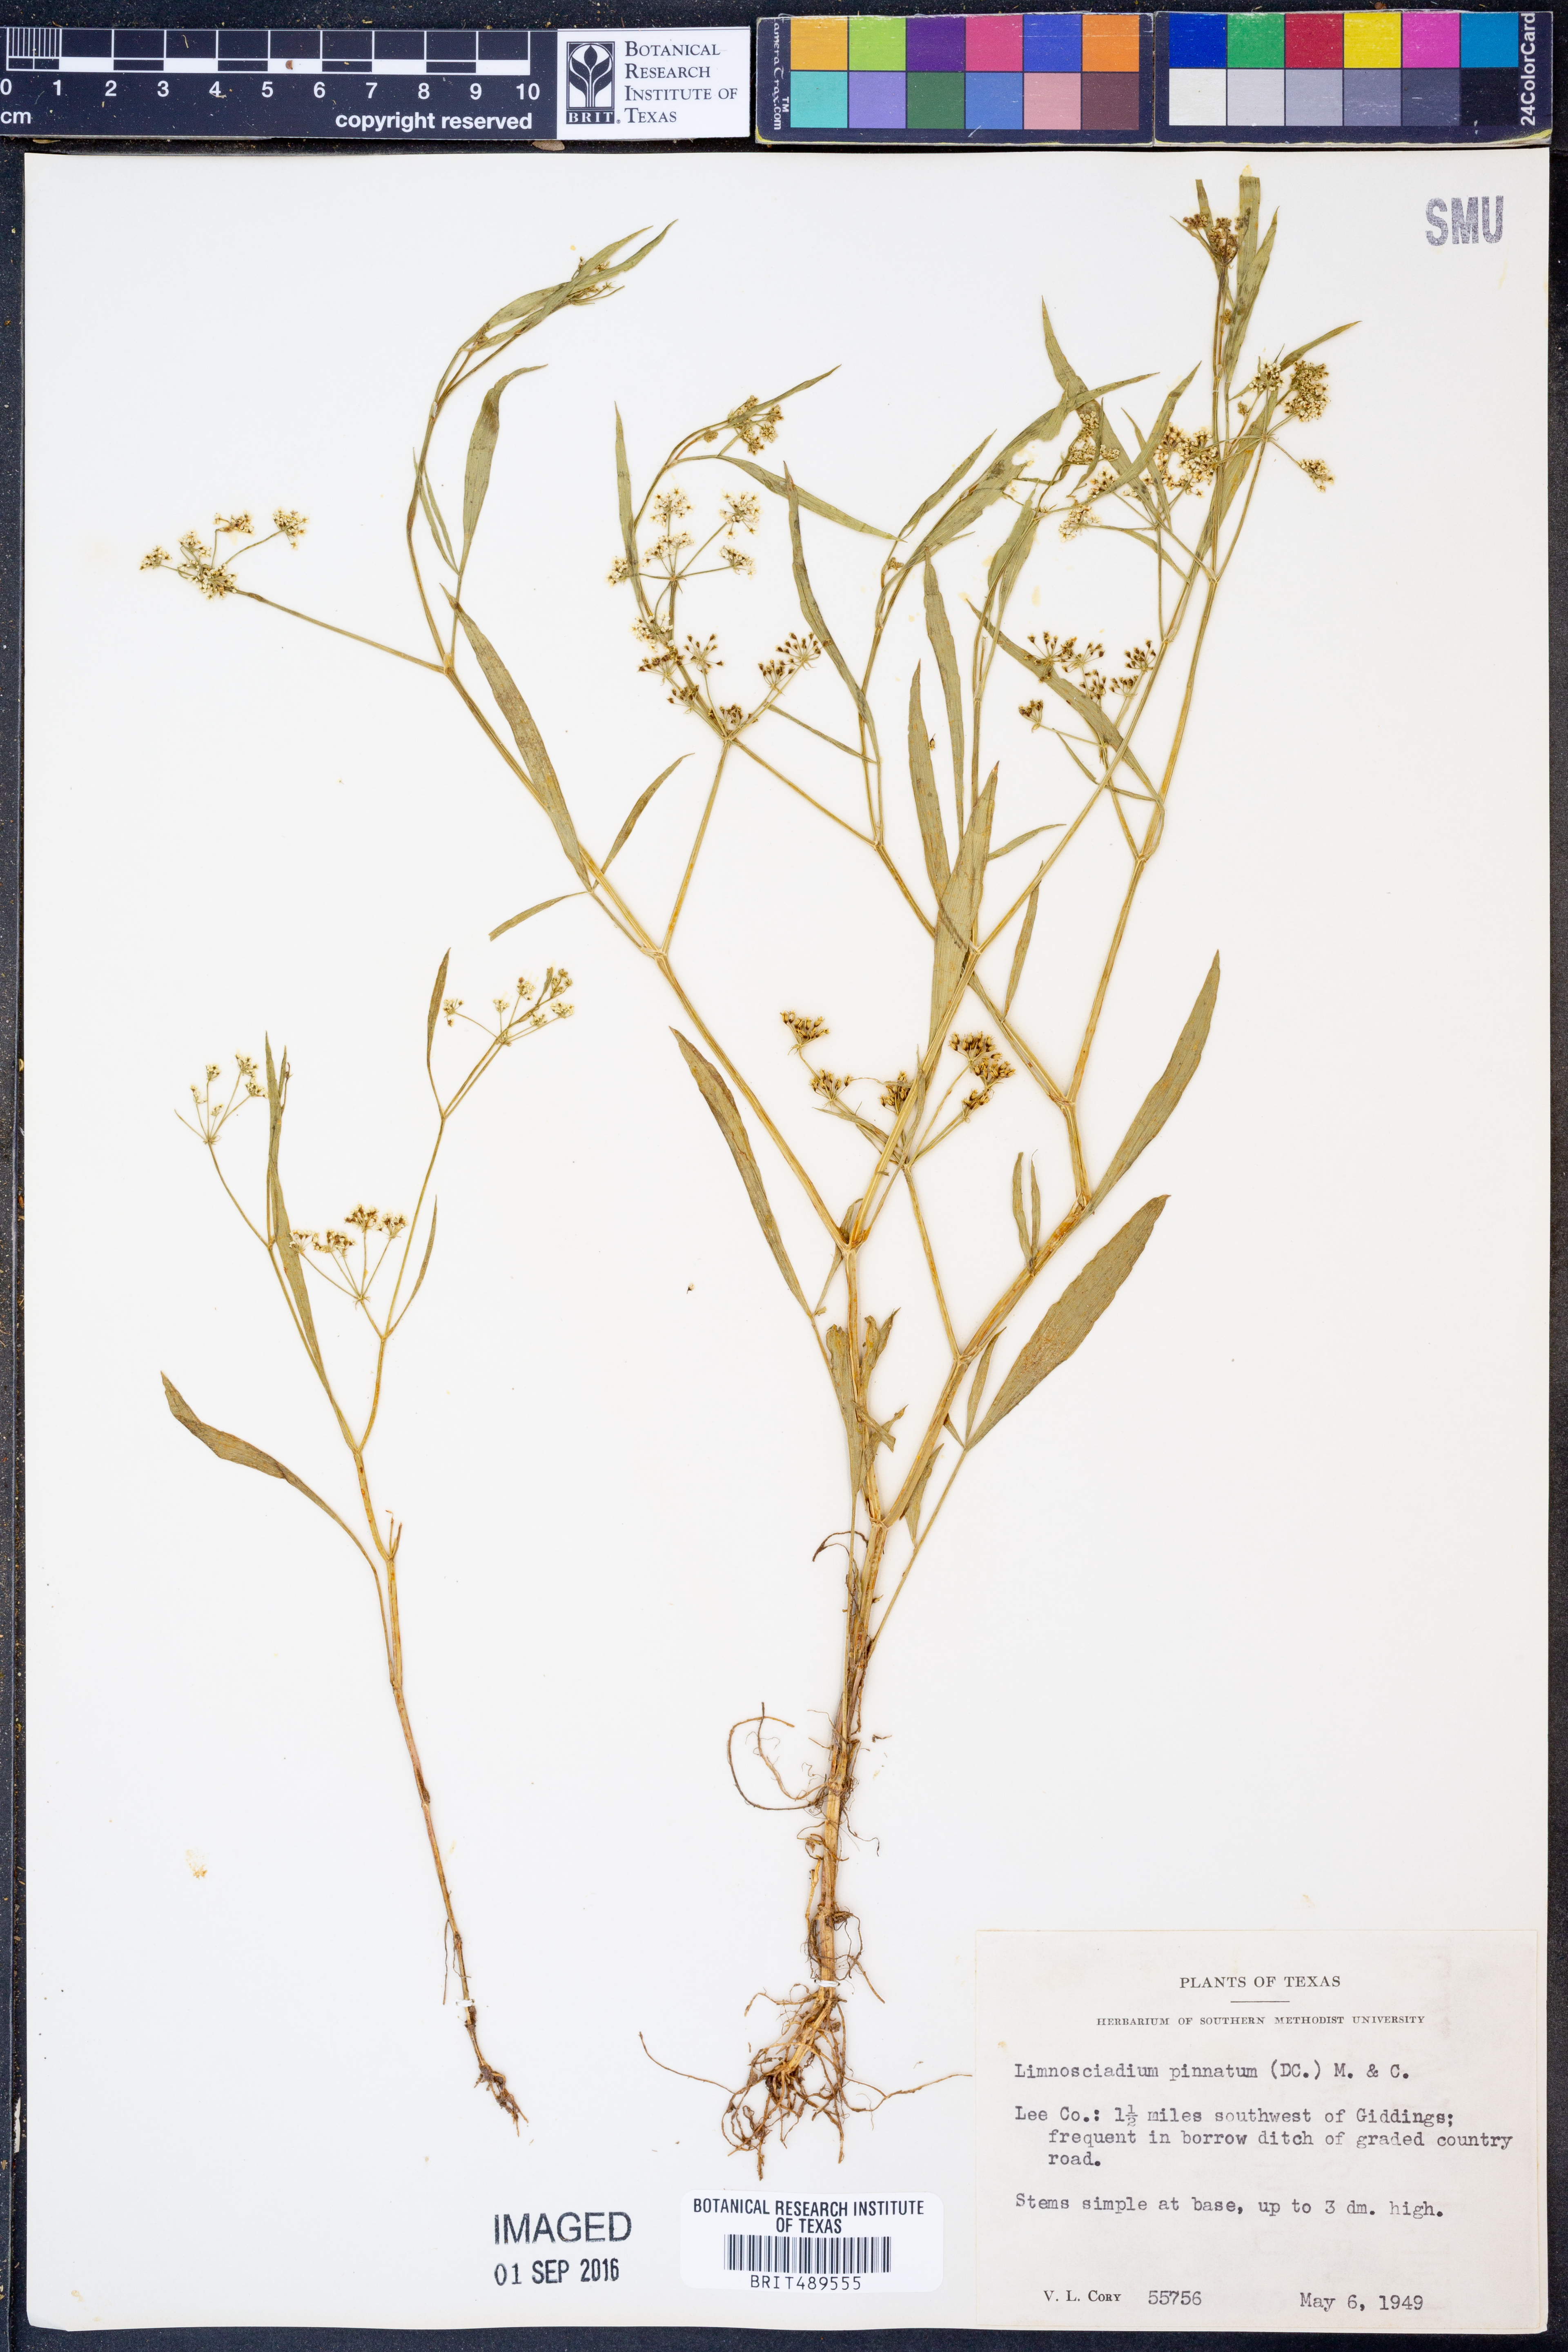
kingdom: Plantae
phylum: Tracheophyta
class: Magnoliopsida
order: Apiales
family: Apiaceae
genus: Limnosciadium
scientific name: Limnosciadium pinnatum
